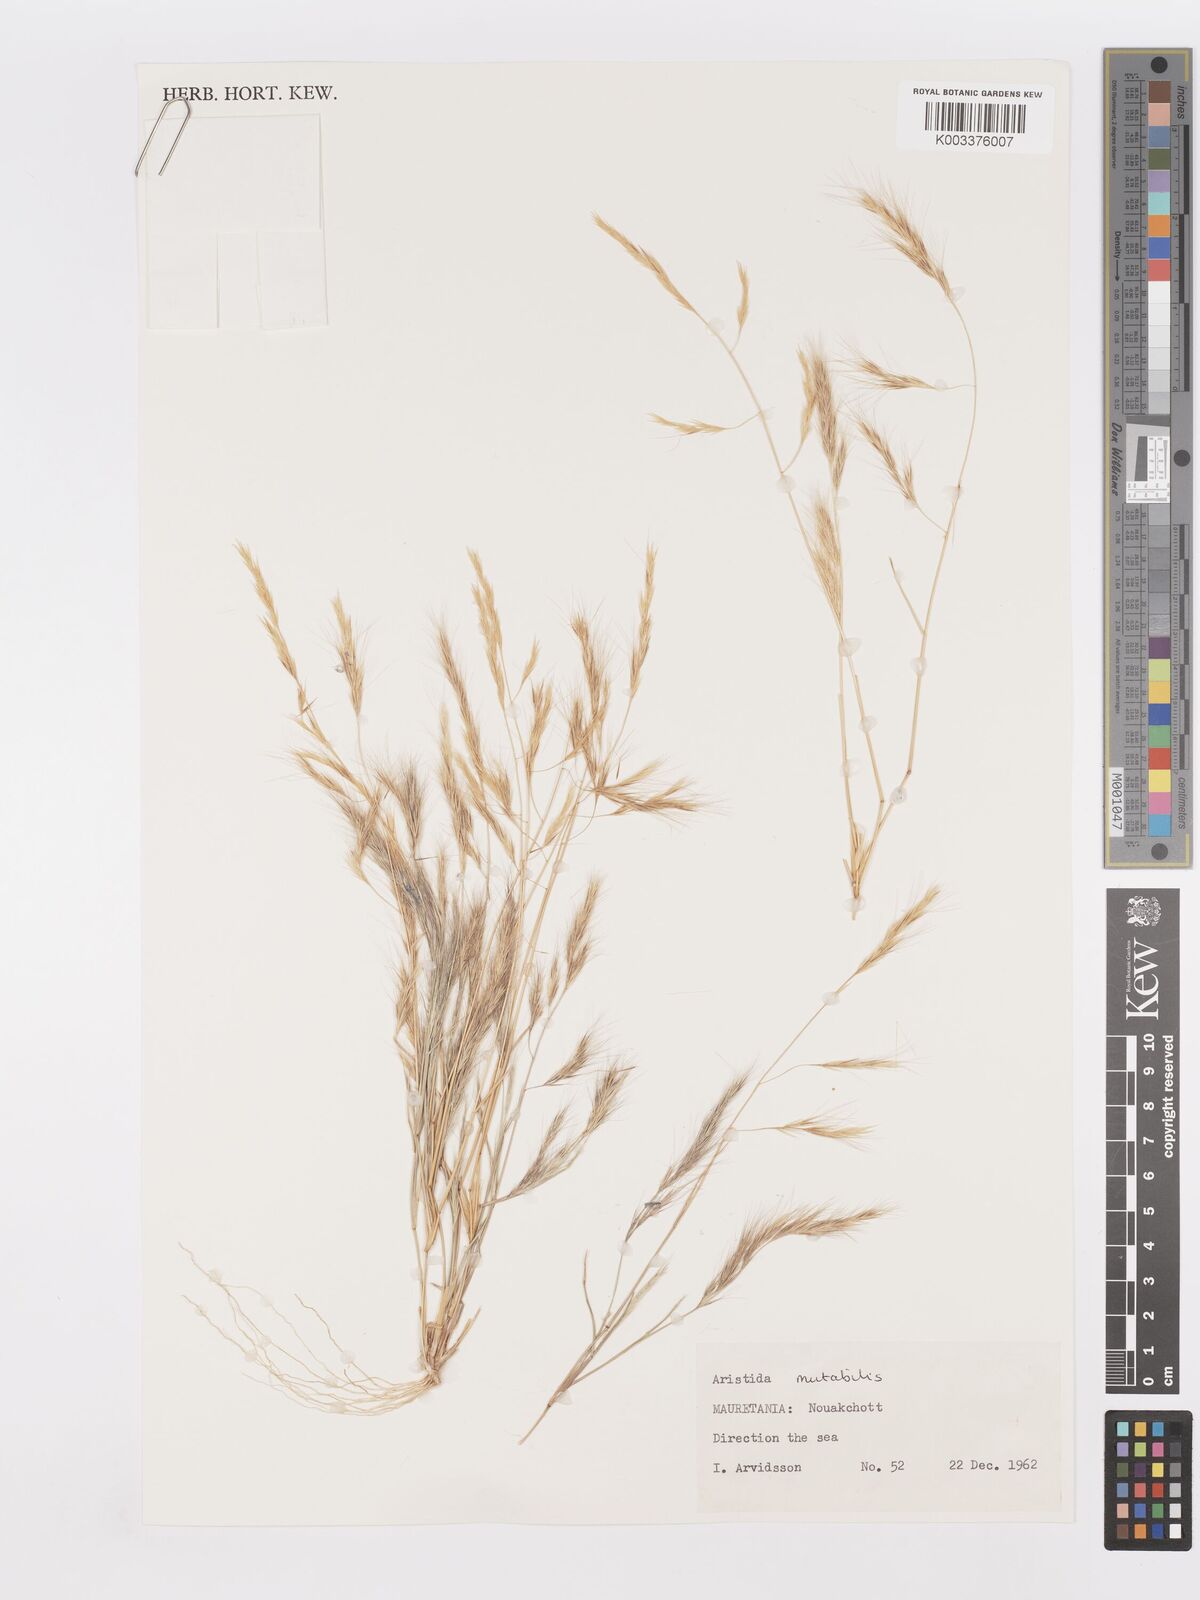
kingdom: Plantae
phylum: Tracheophyta
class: Liliopsida
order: Poales
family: Poaceae
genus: Aristida
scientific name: Aristida mutabilis
